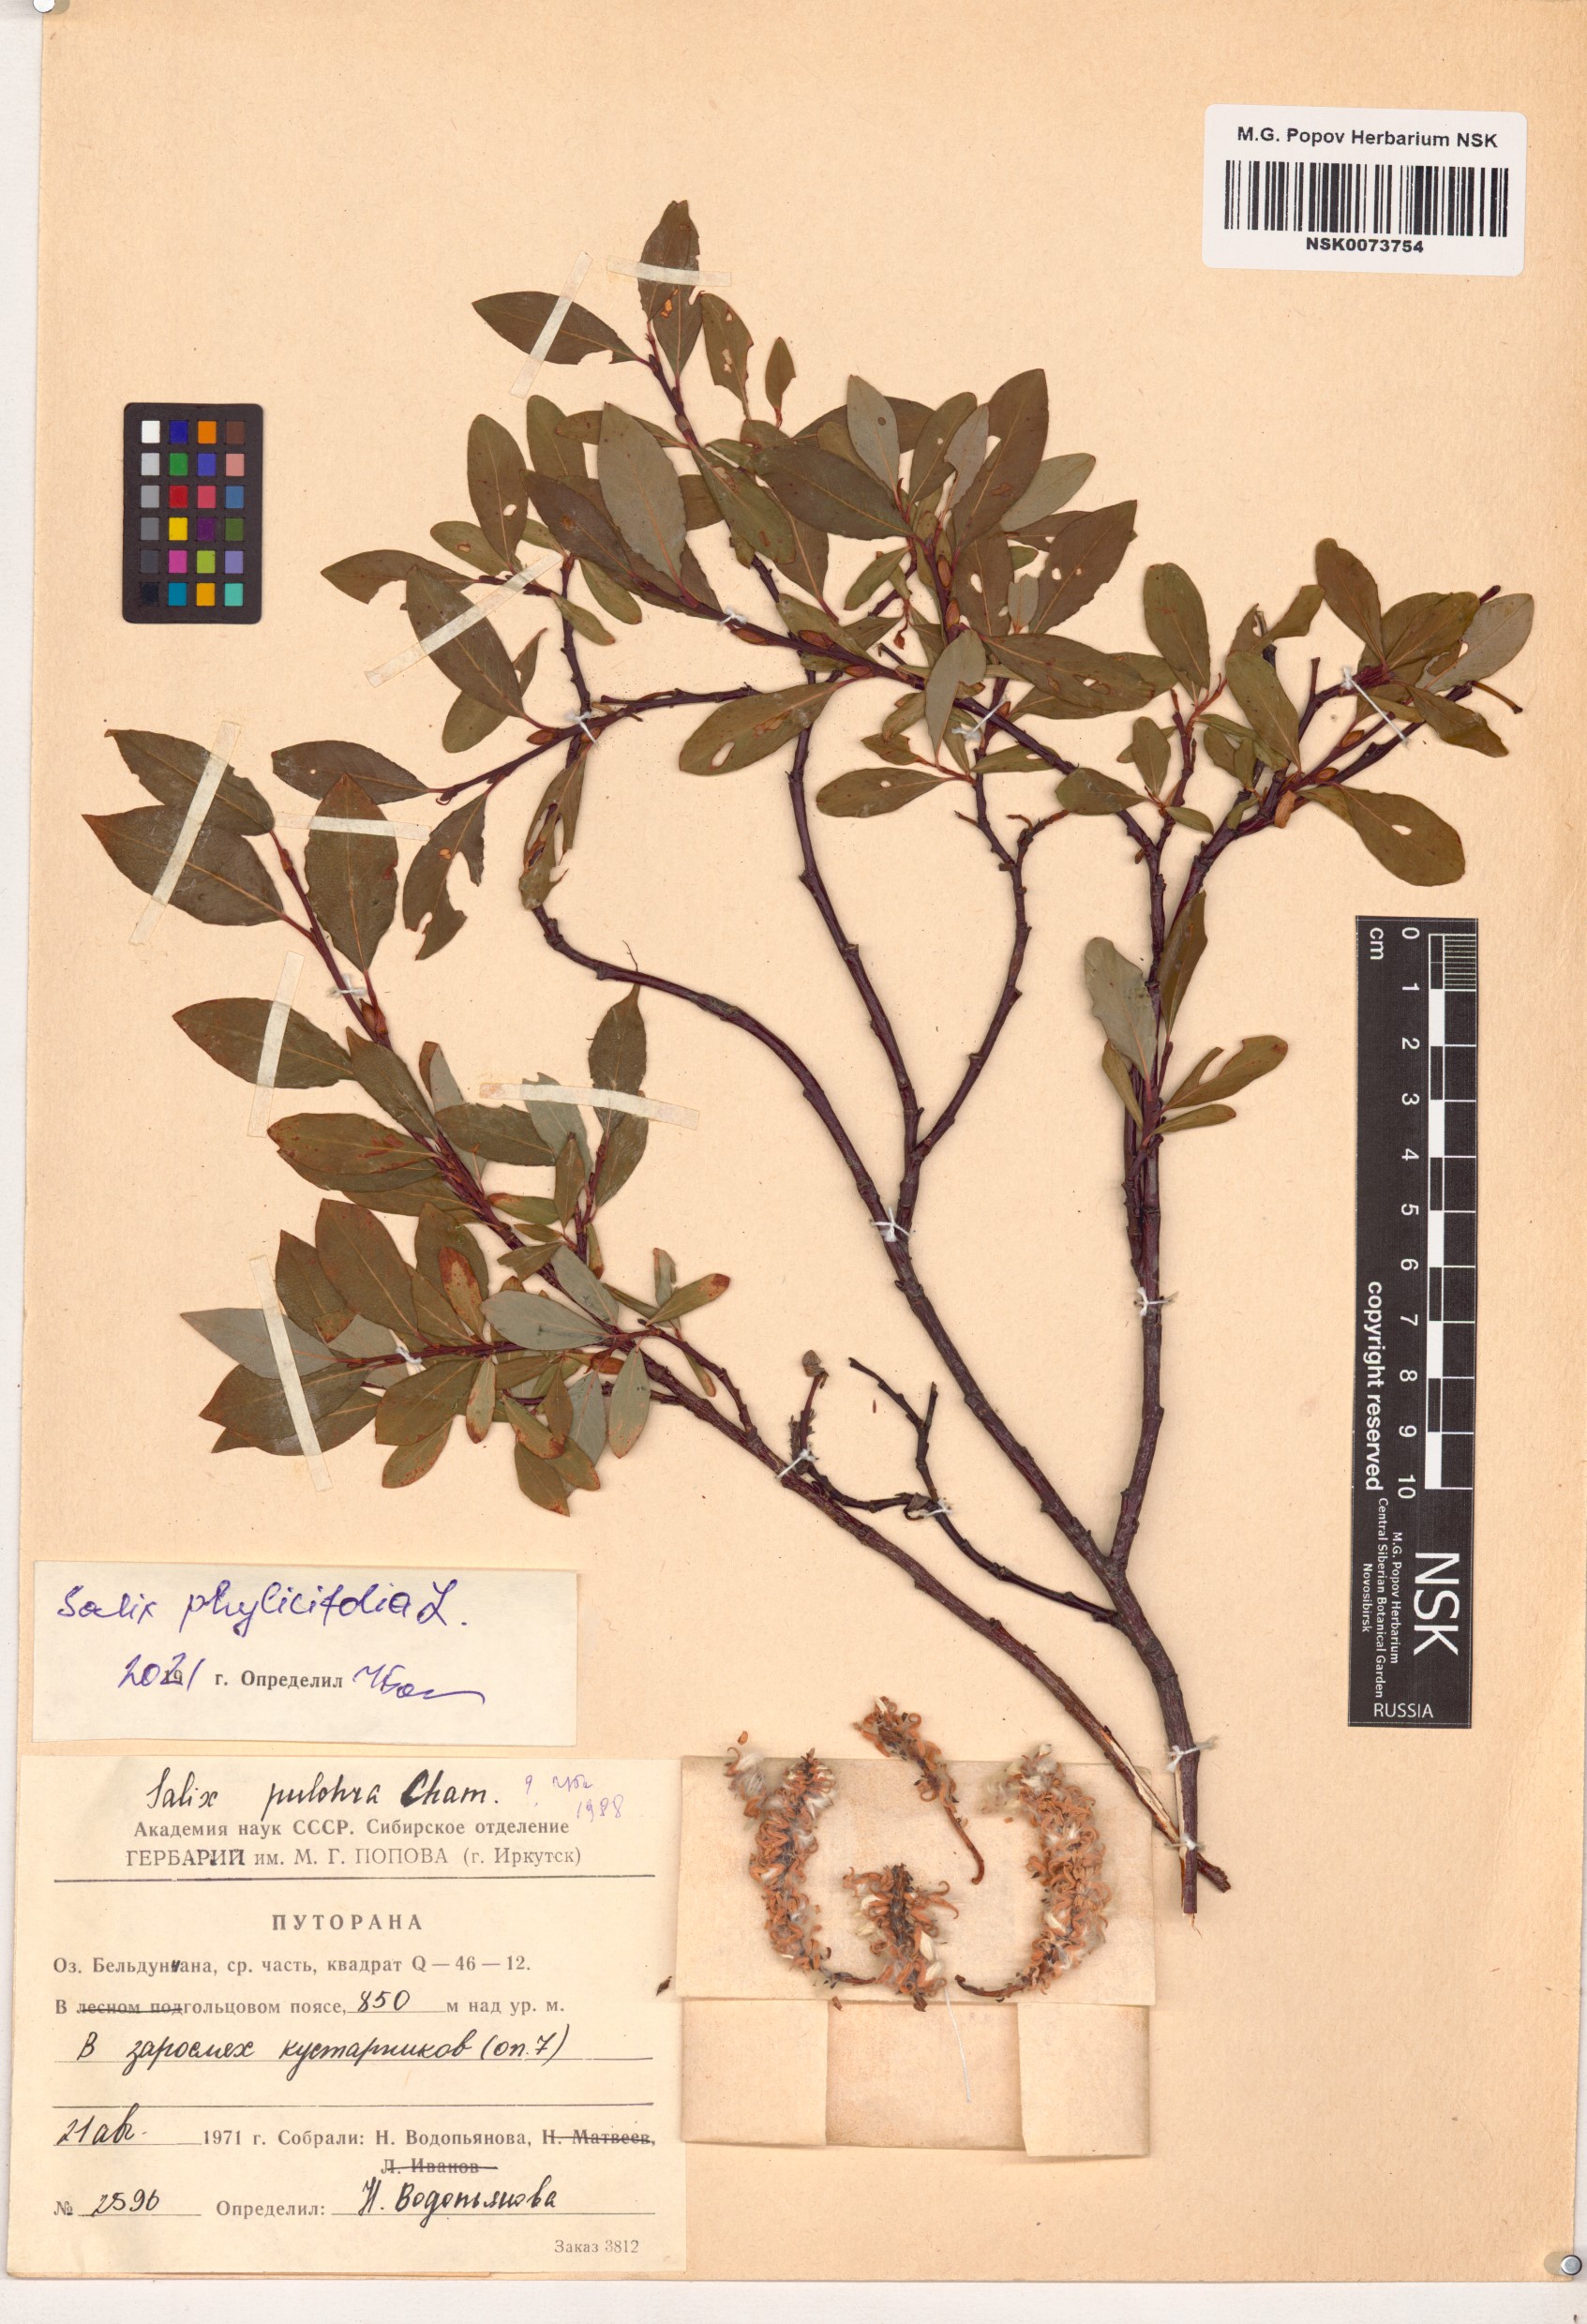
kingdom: Plantae
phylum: Tracheophyta
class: Magnoliopsida
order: Malpighiales
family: Salicaceae
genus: Salix
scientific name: Salix phylicifolia
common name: Tea-leaved willow
